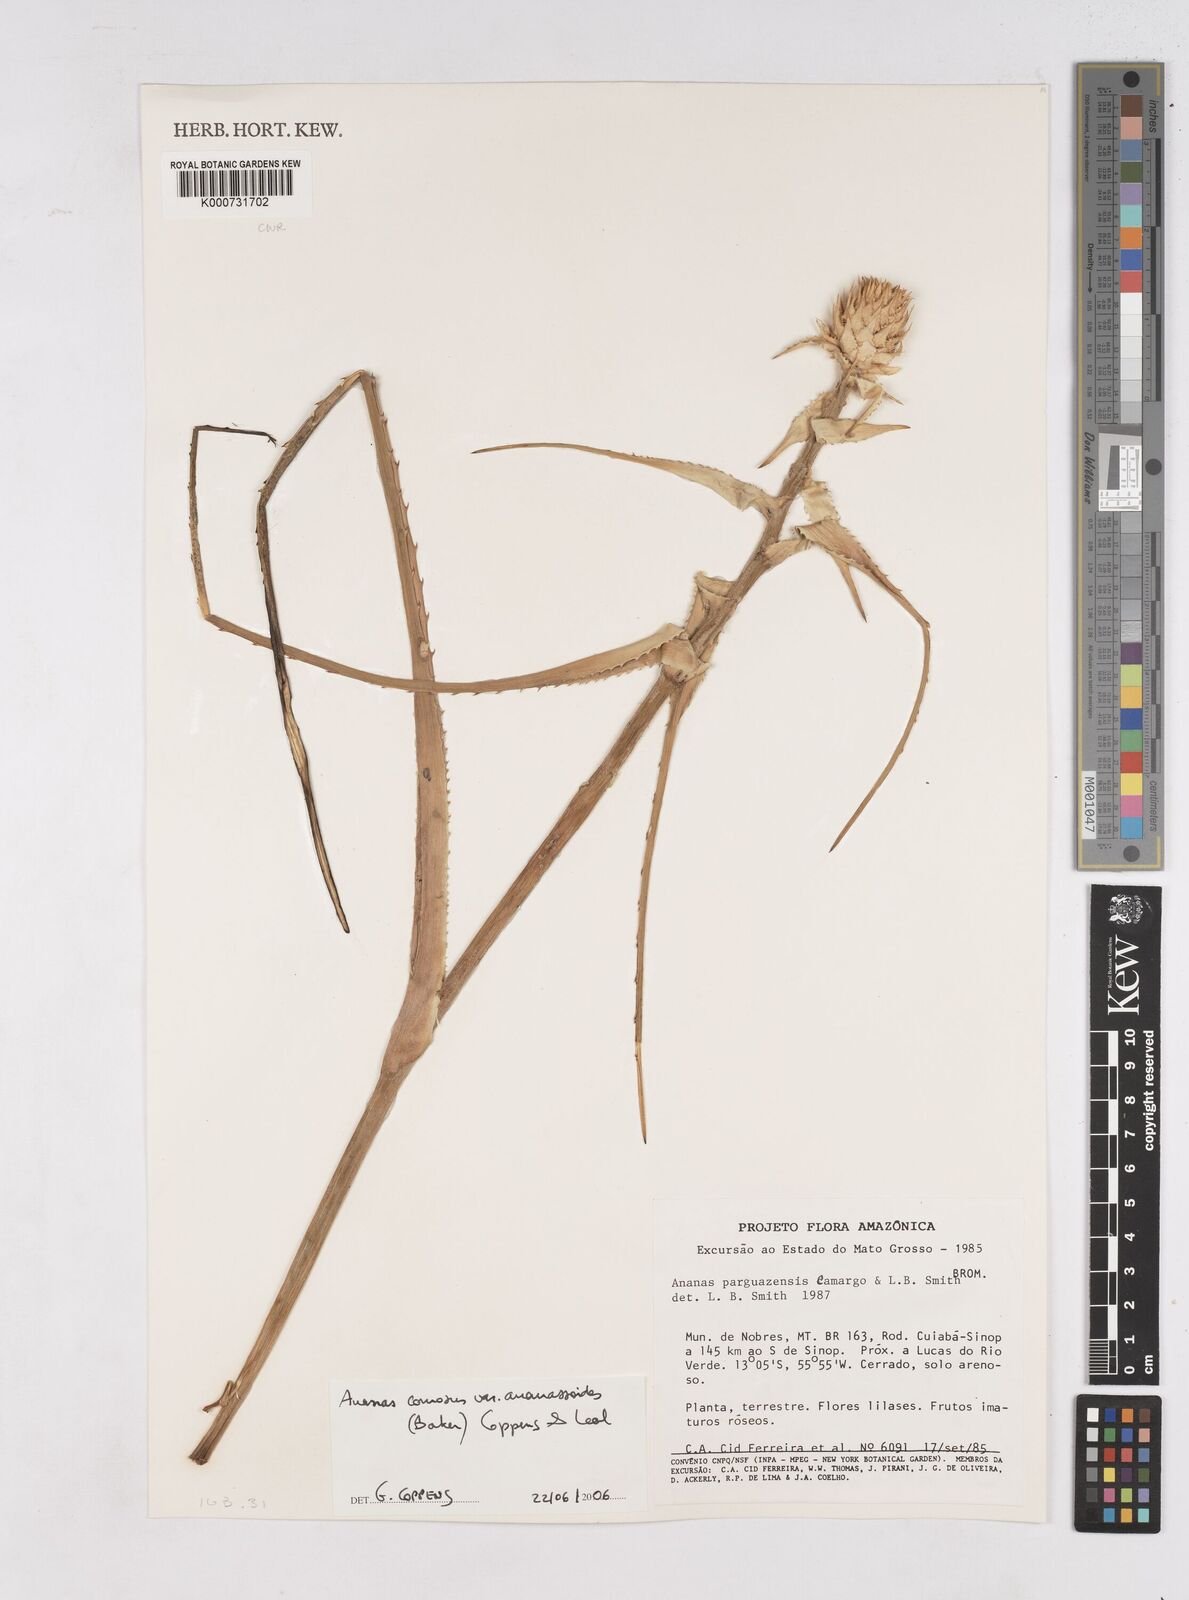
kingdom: Plantae
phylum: Tracheophyta
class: Liliopsida
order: Poales
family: Bromeliaceae
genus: Ananas
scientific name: Ananas comosus
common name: Pineapple
